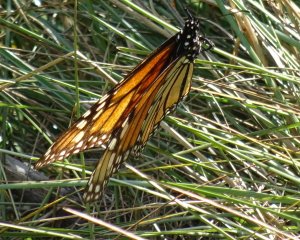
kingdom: Animalia
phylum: Arthropoda
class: Insecta
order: Lepidoptera
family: Nymphalidae
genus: Danaus
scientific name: Danaus plexippus
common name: Monarch
